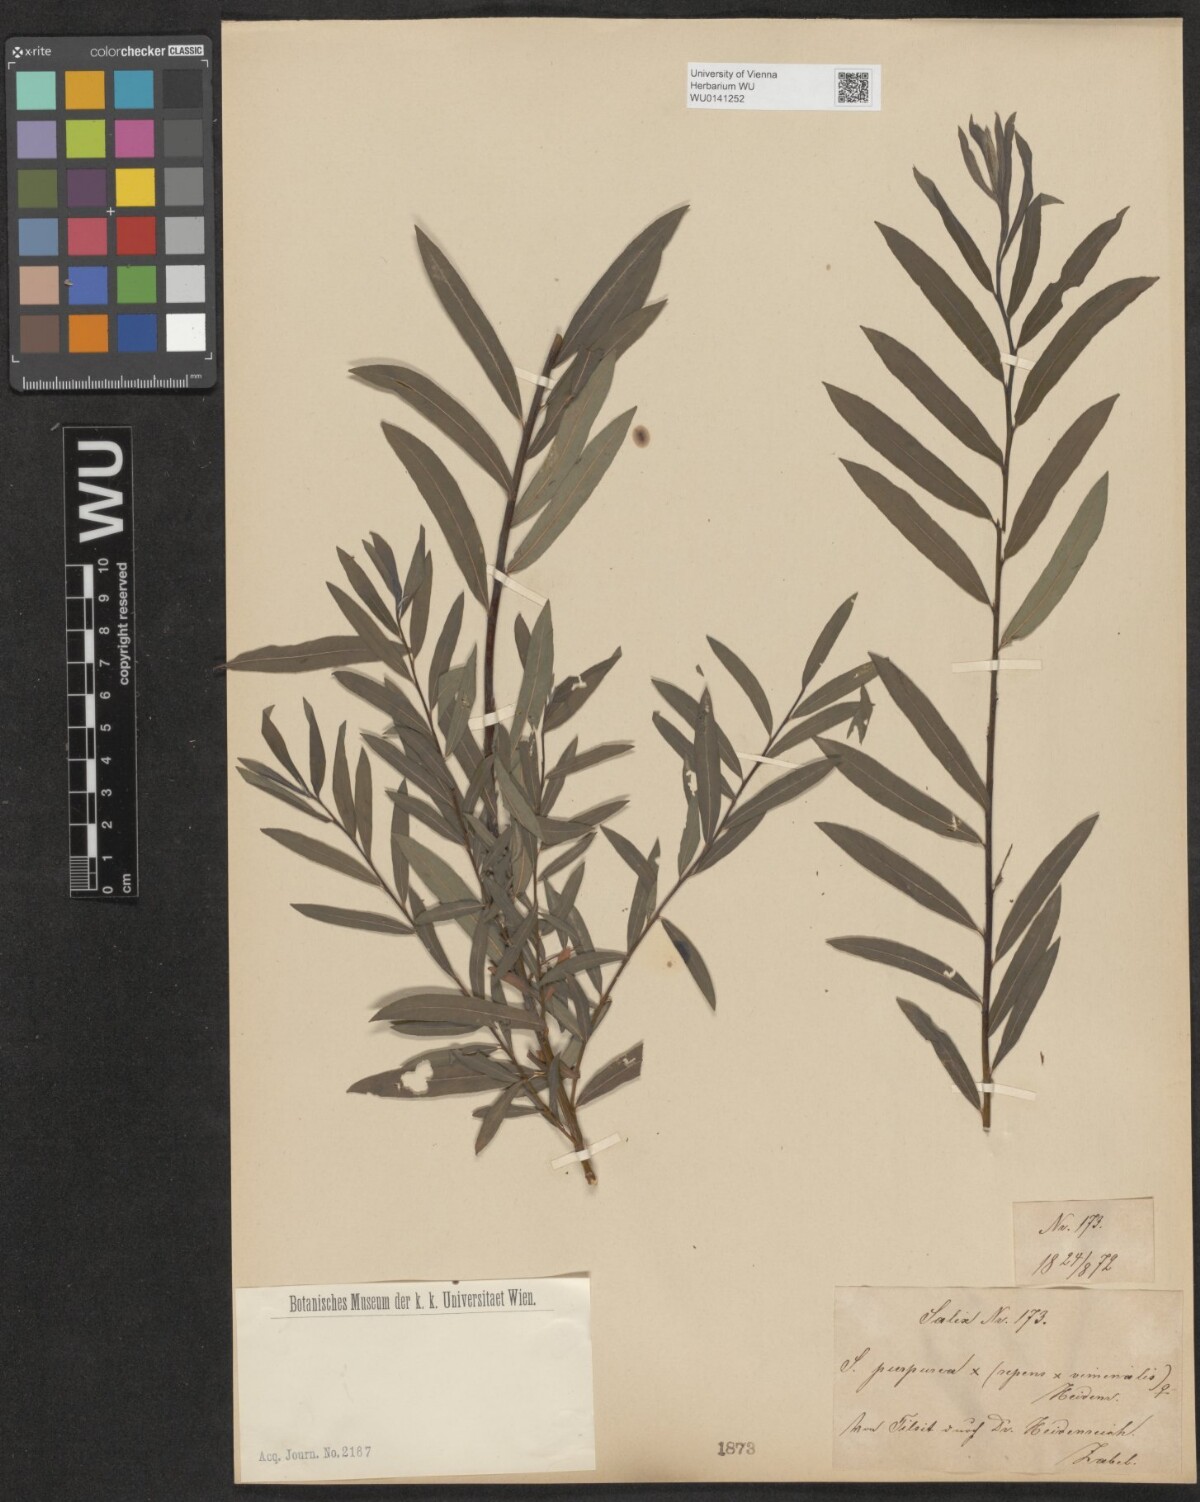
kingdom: Plantae
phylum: Tracheophyta
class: Magnoliopsida
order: Malpighiales
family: Salicaceae
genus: Salix
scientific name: Salix
